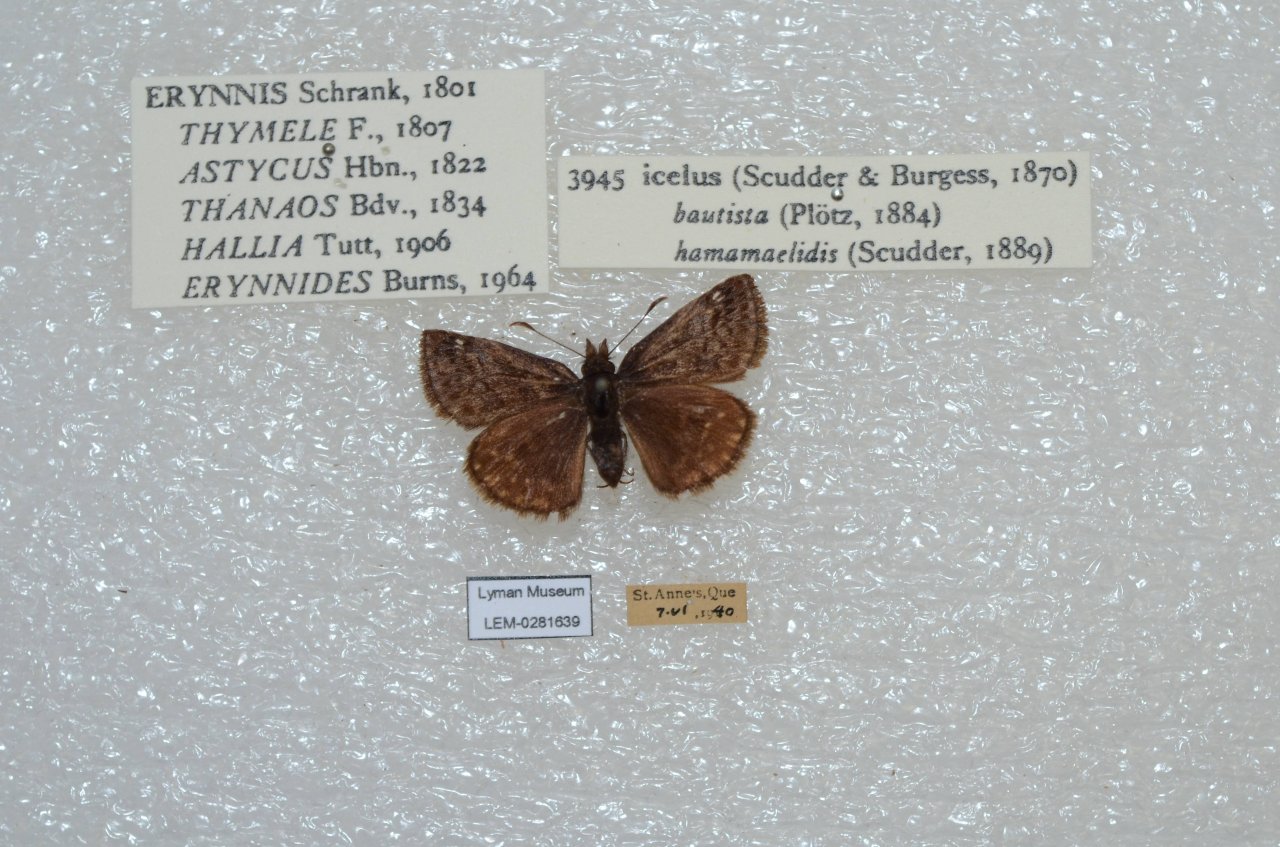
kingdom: Animalia
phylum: Arthropoda
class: Insecta
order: Lepidoptera
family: Hesperiidae
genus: Erynnis
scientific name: Erynnis icelus
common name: Dreamy Duskywing
